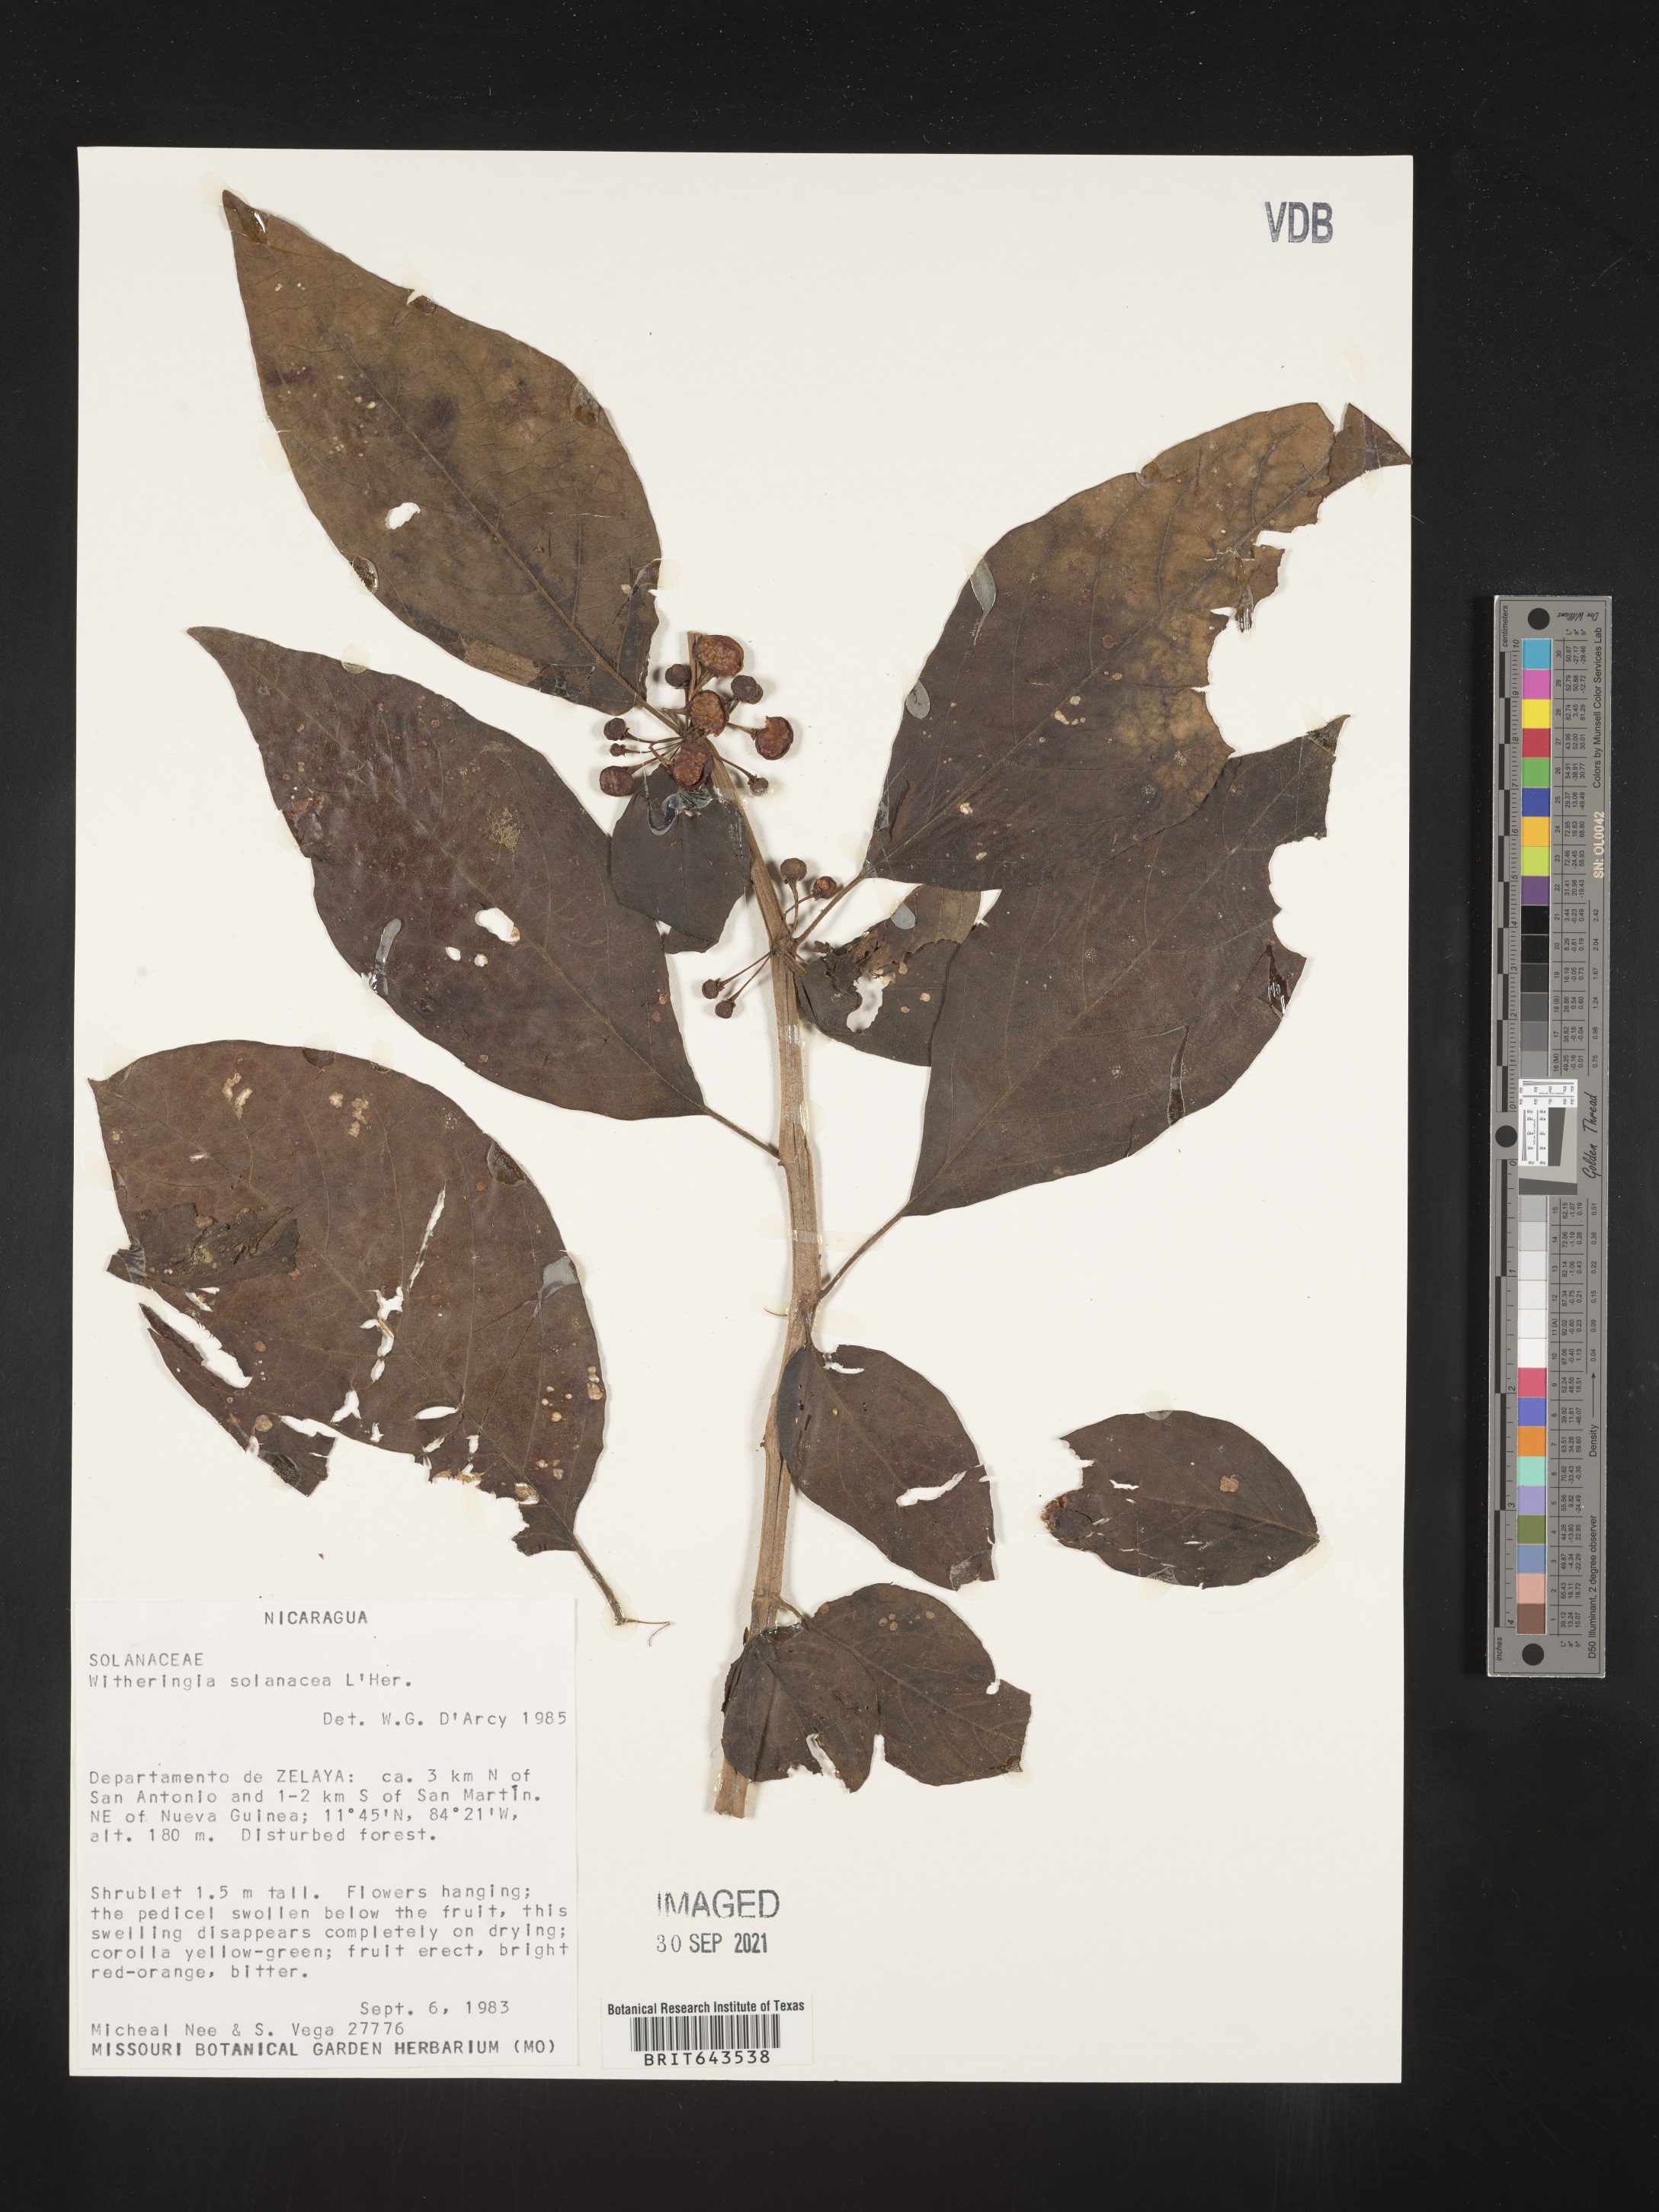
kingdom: Plantae
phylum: Tracheophyta
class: Magnoliopsida
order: Solanales
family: Solanaceae
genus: Witheringia
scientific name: Witheringia
